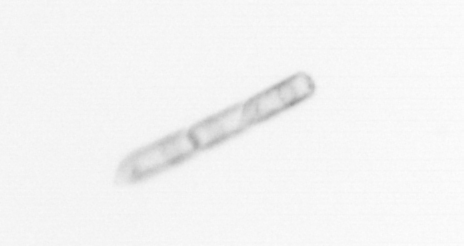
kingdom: Chromista
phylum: Ochrophyta
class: Bacillariophyceae
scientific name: Bacillariophyceae
